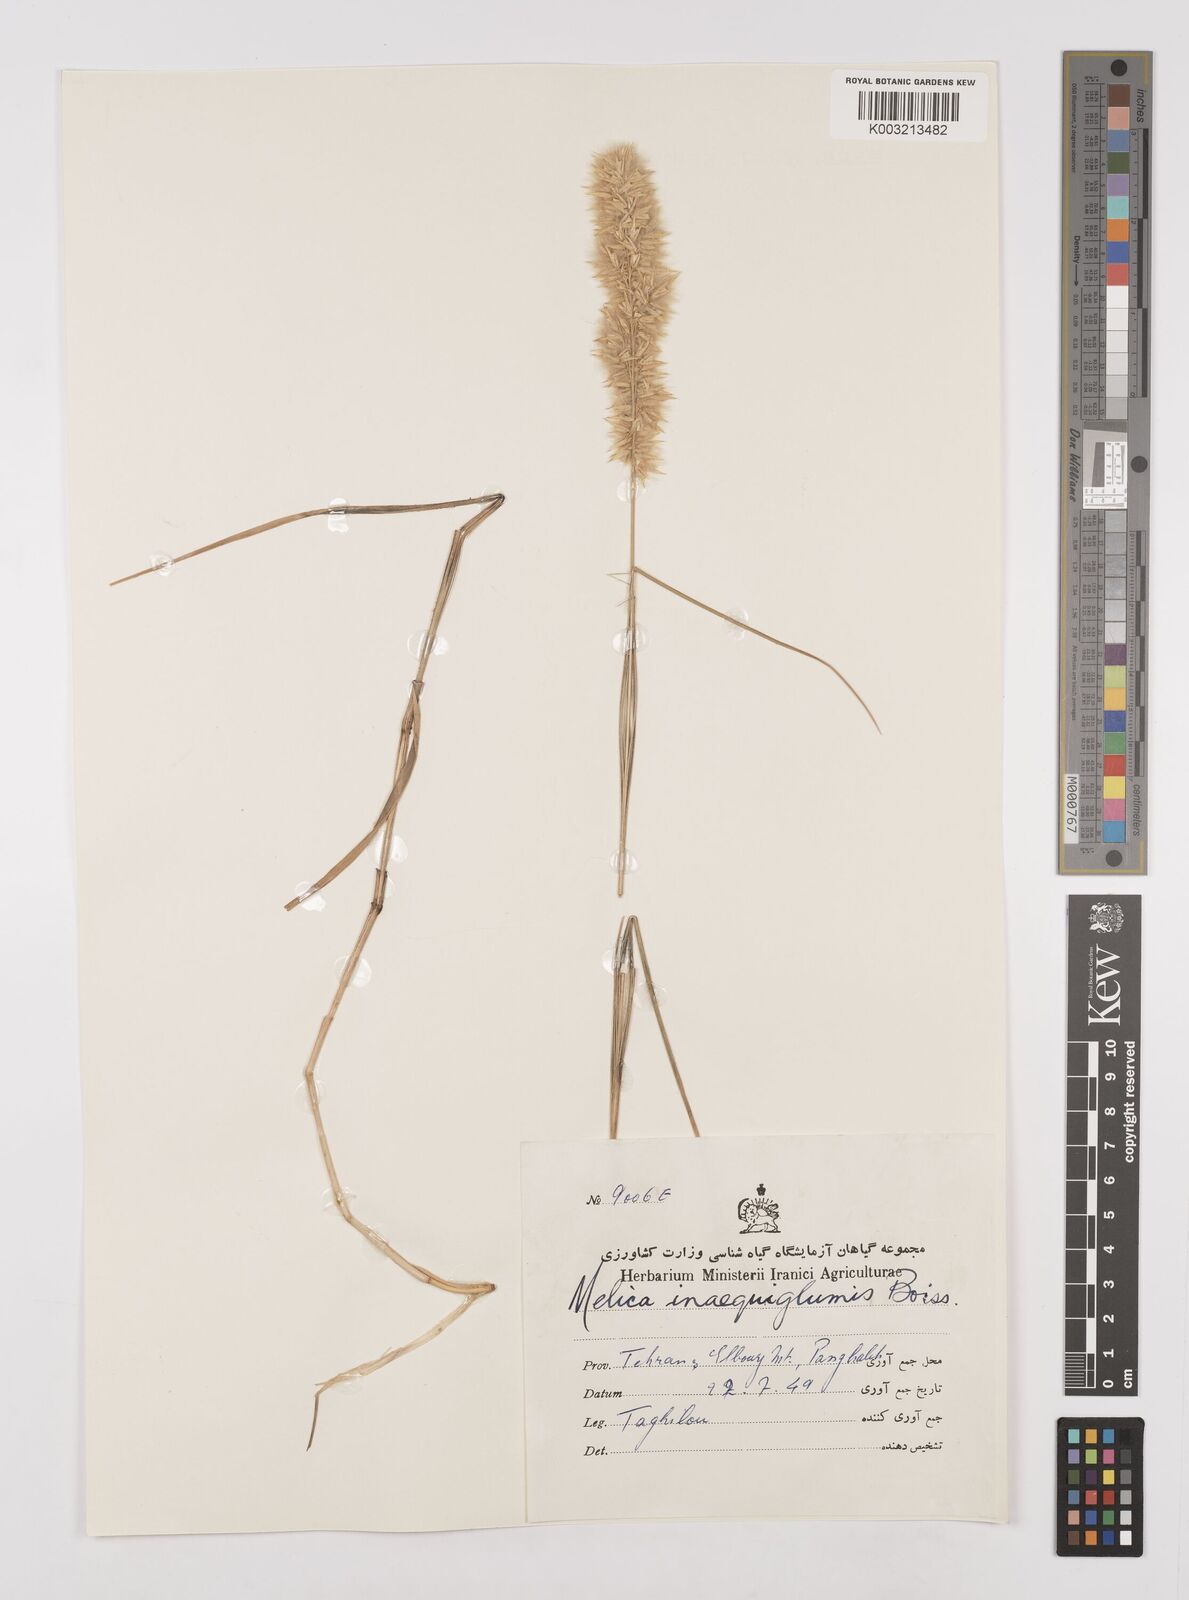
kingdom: Plantae
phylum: Tracheophyta
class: Liliopsida
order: Poales
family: Poaceae
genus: Melica
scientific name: Melica persica
